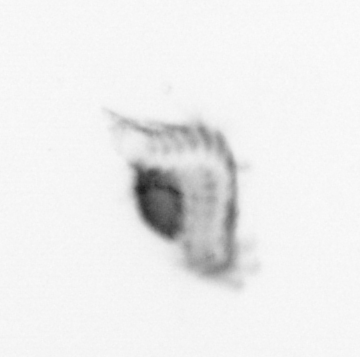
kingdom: Animalia
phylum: Annelida
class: Polychaeta
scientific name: Polychaeta
